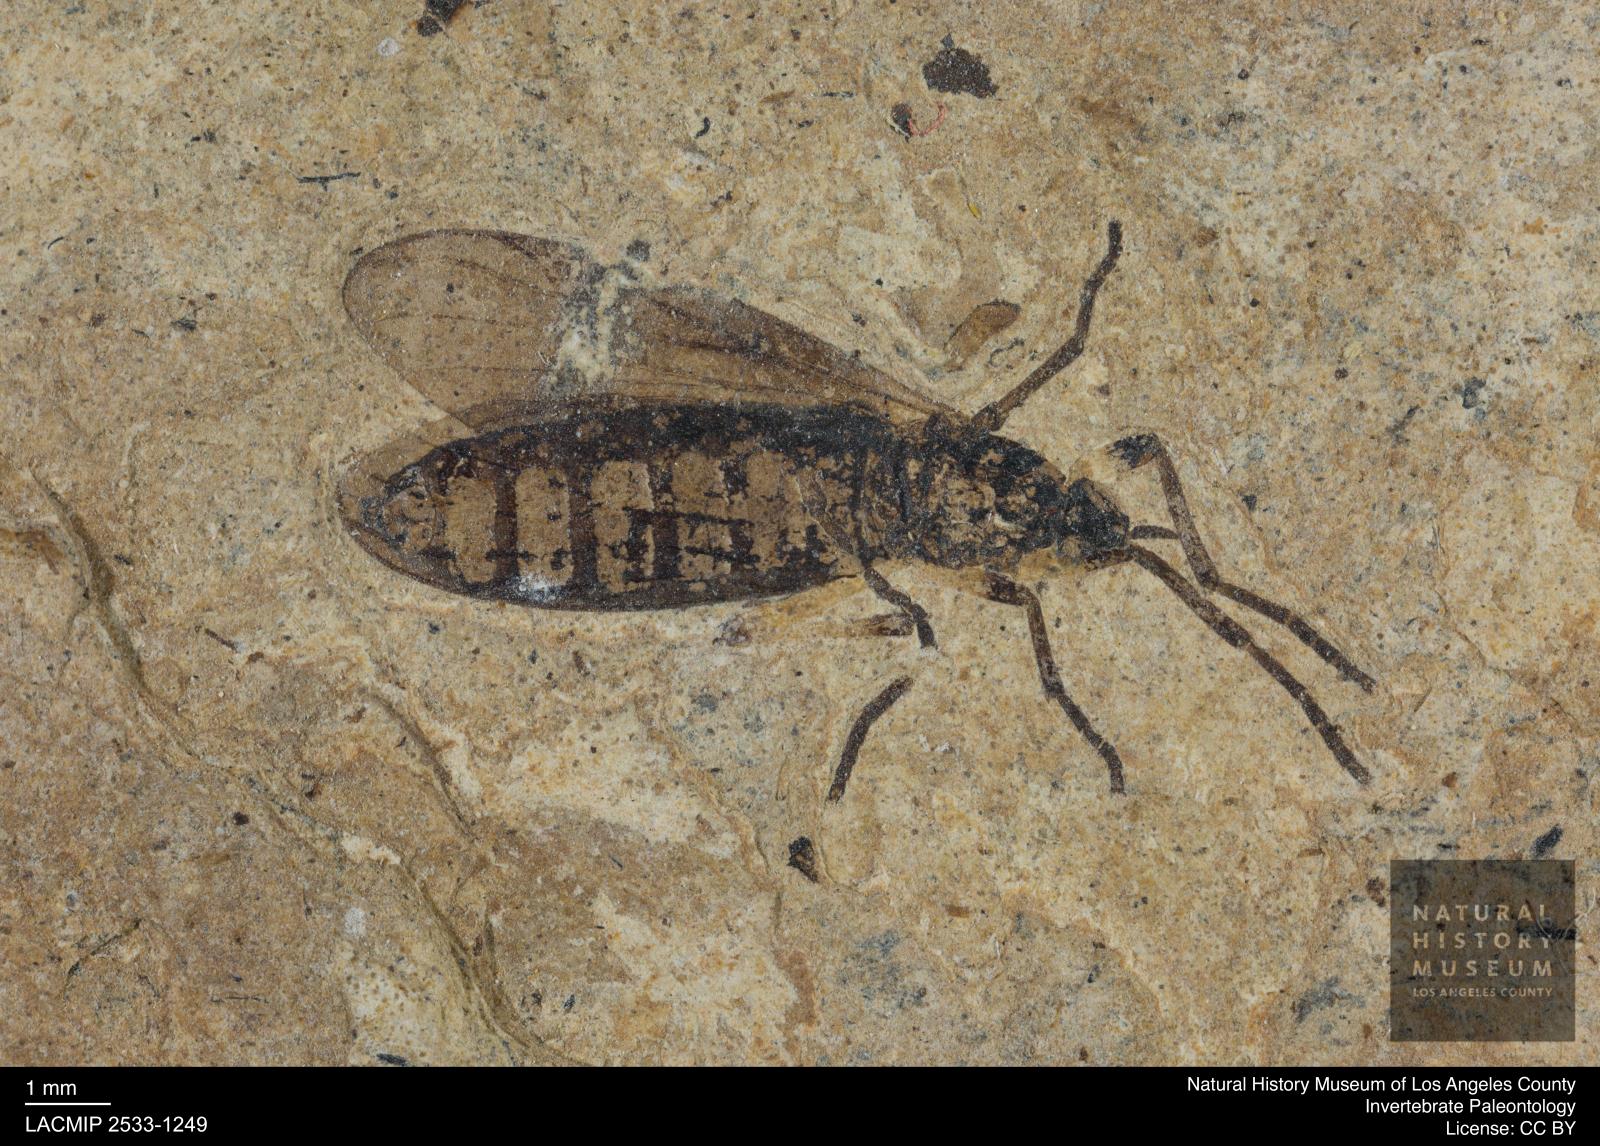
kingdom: Animalia
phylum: Arthropoda
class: Insecta
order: Diptera
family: Bibionidae
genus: Plecia
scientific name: Plecia hypogaea
